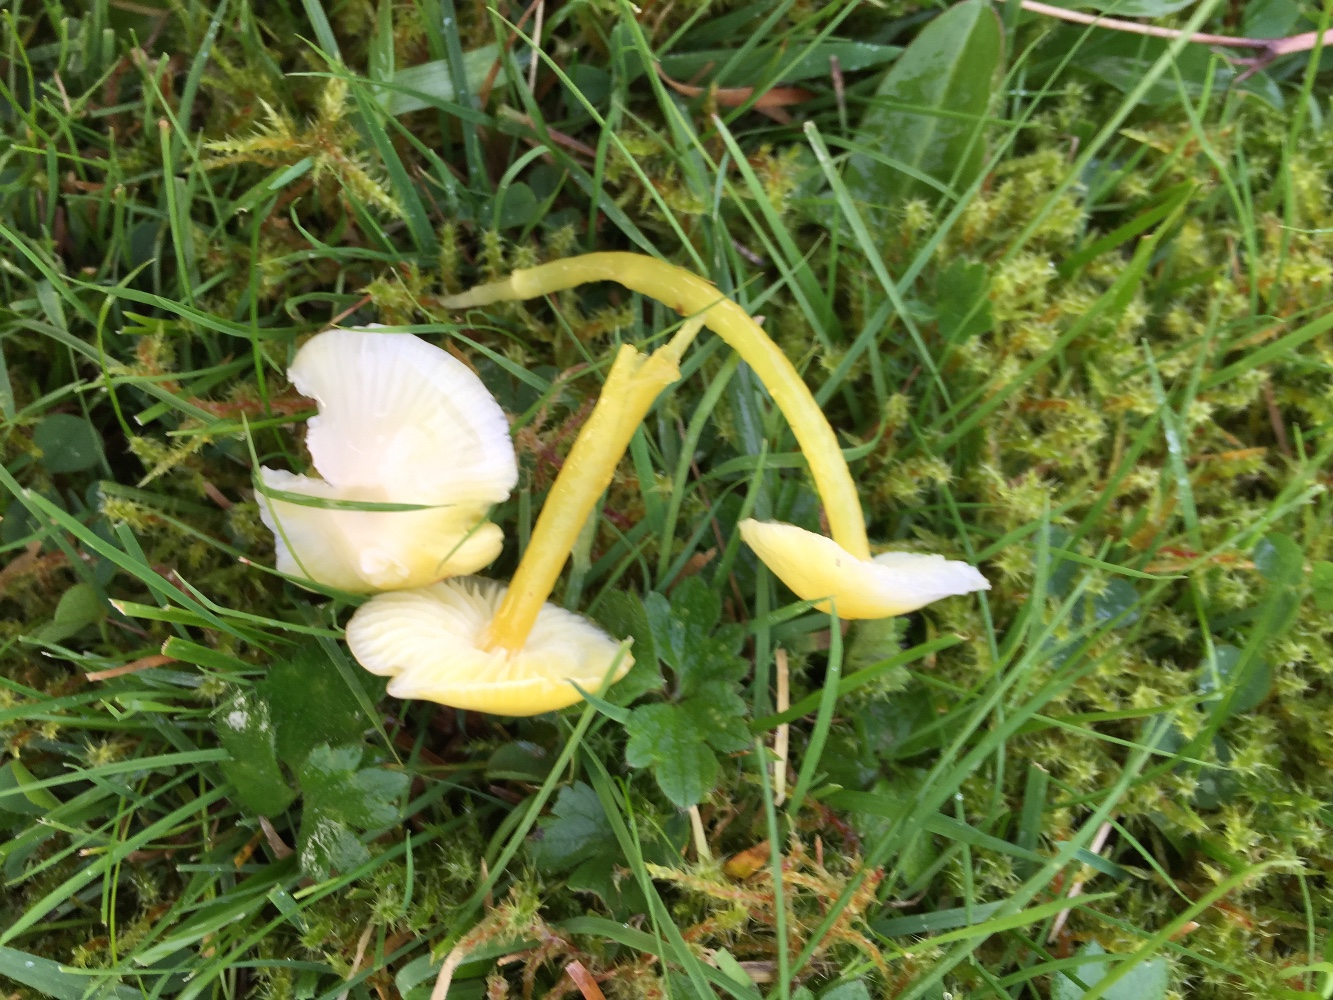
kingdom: Fungi
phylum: Basidiomycota
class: Agaricomycetes
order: Agaricales
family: Hygrophoraceae
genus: Hygrocybe
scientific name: Hygrocybe glutinipes
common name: slimstokket vokshat
